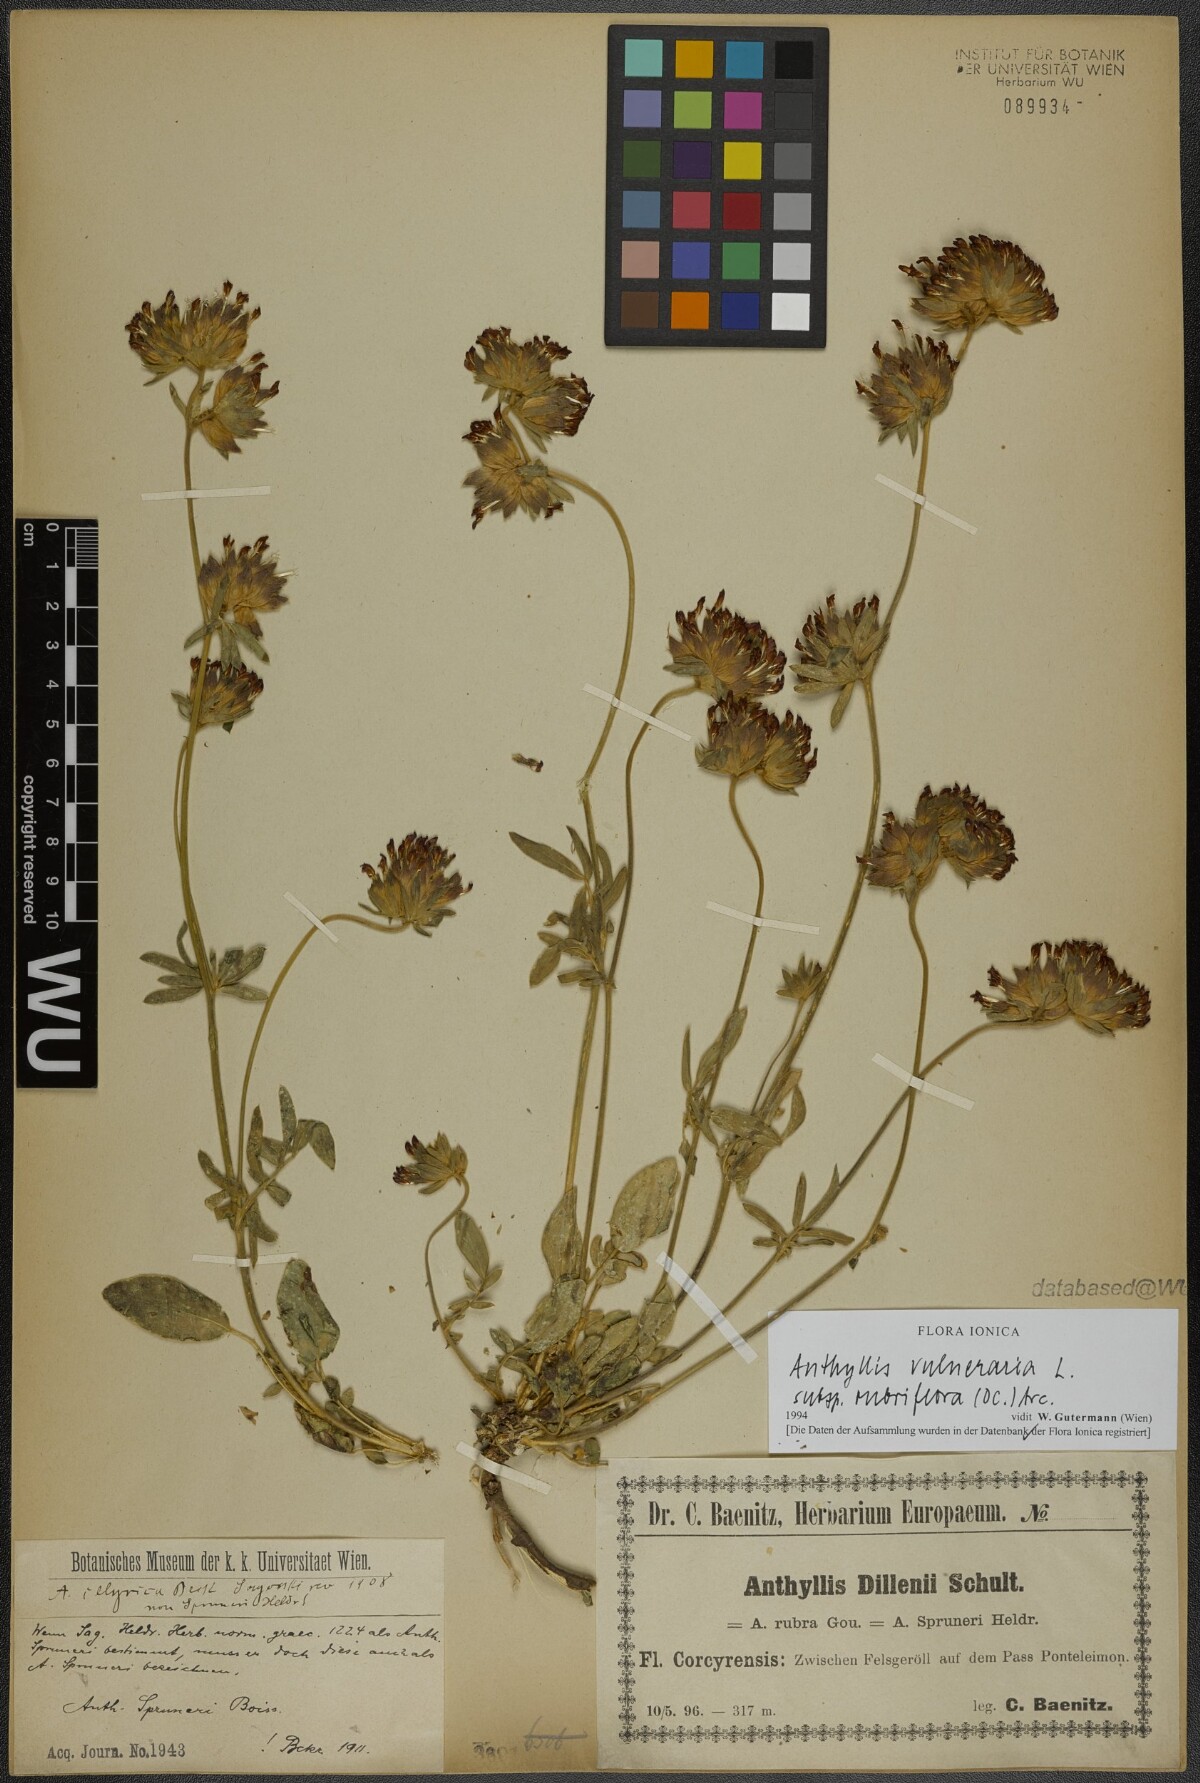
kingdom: Plantae
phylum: Tracheophyta
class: Magnoliopsida
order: Fabales
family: Fabaceae
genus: Anthyllis
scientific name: Anthyllis vulneraria
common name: Kidney vetch
